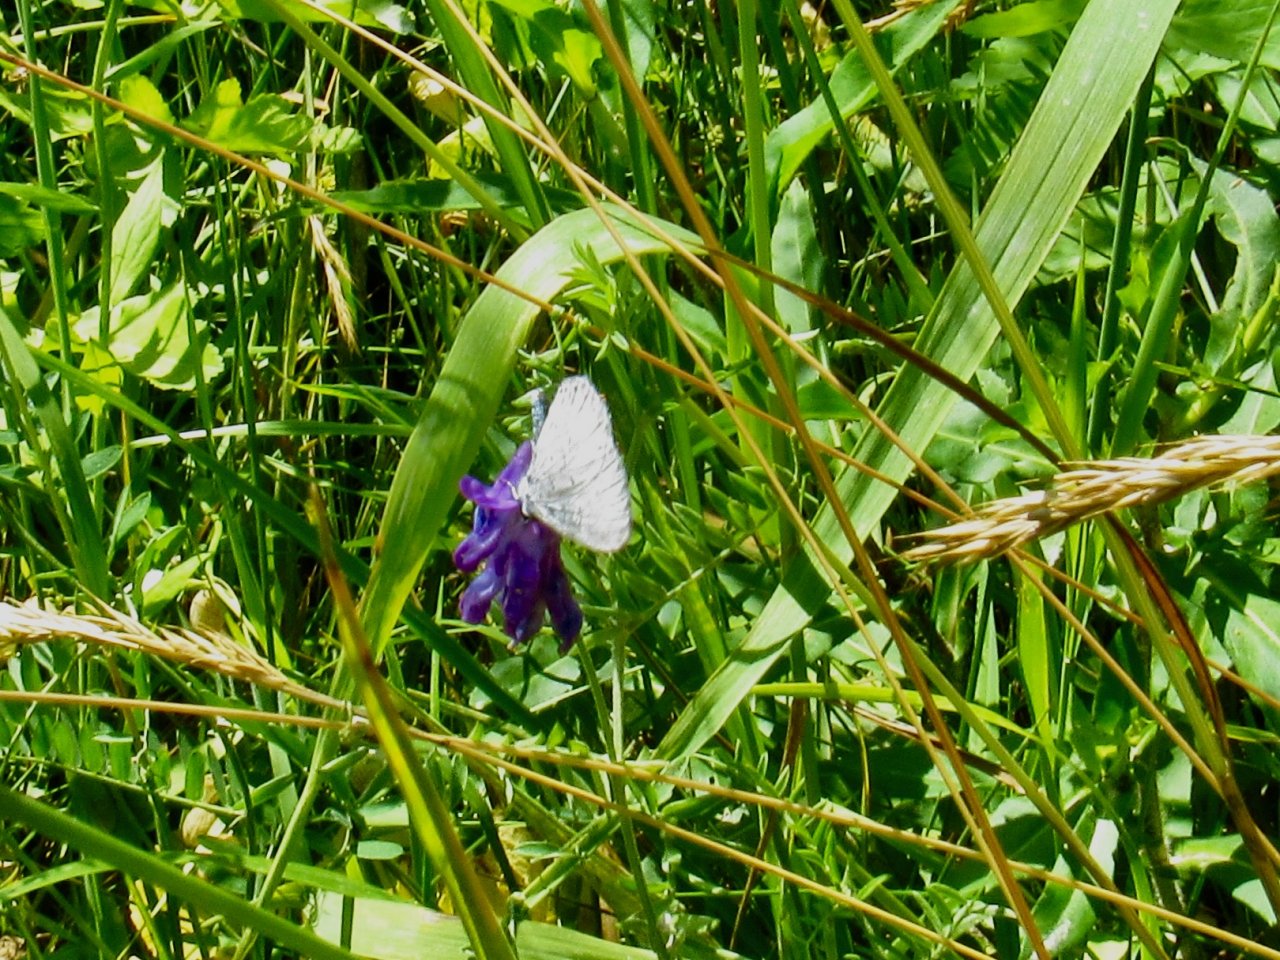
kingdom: Animalia
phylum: Arthropoda
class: Insecta
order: Lepidoptera
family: Lycaenidae
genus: Celastrina
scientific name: Celastrina
